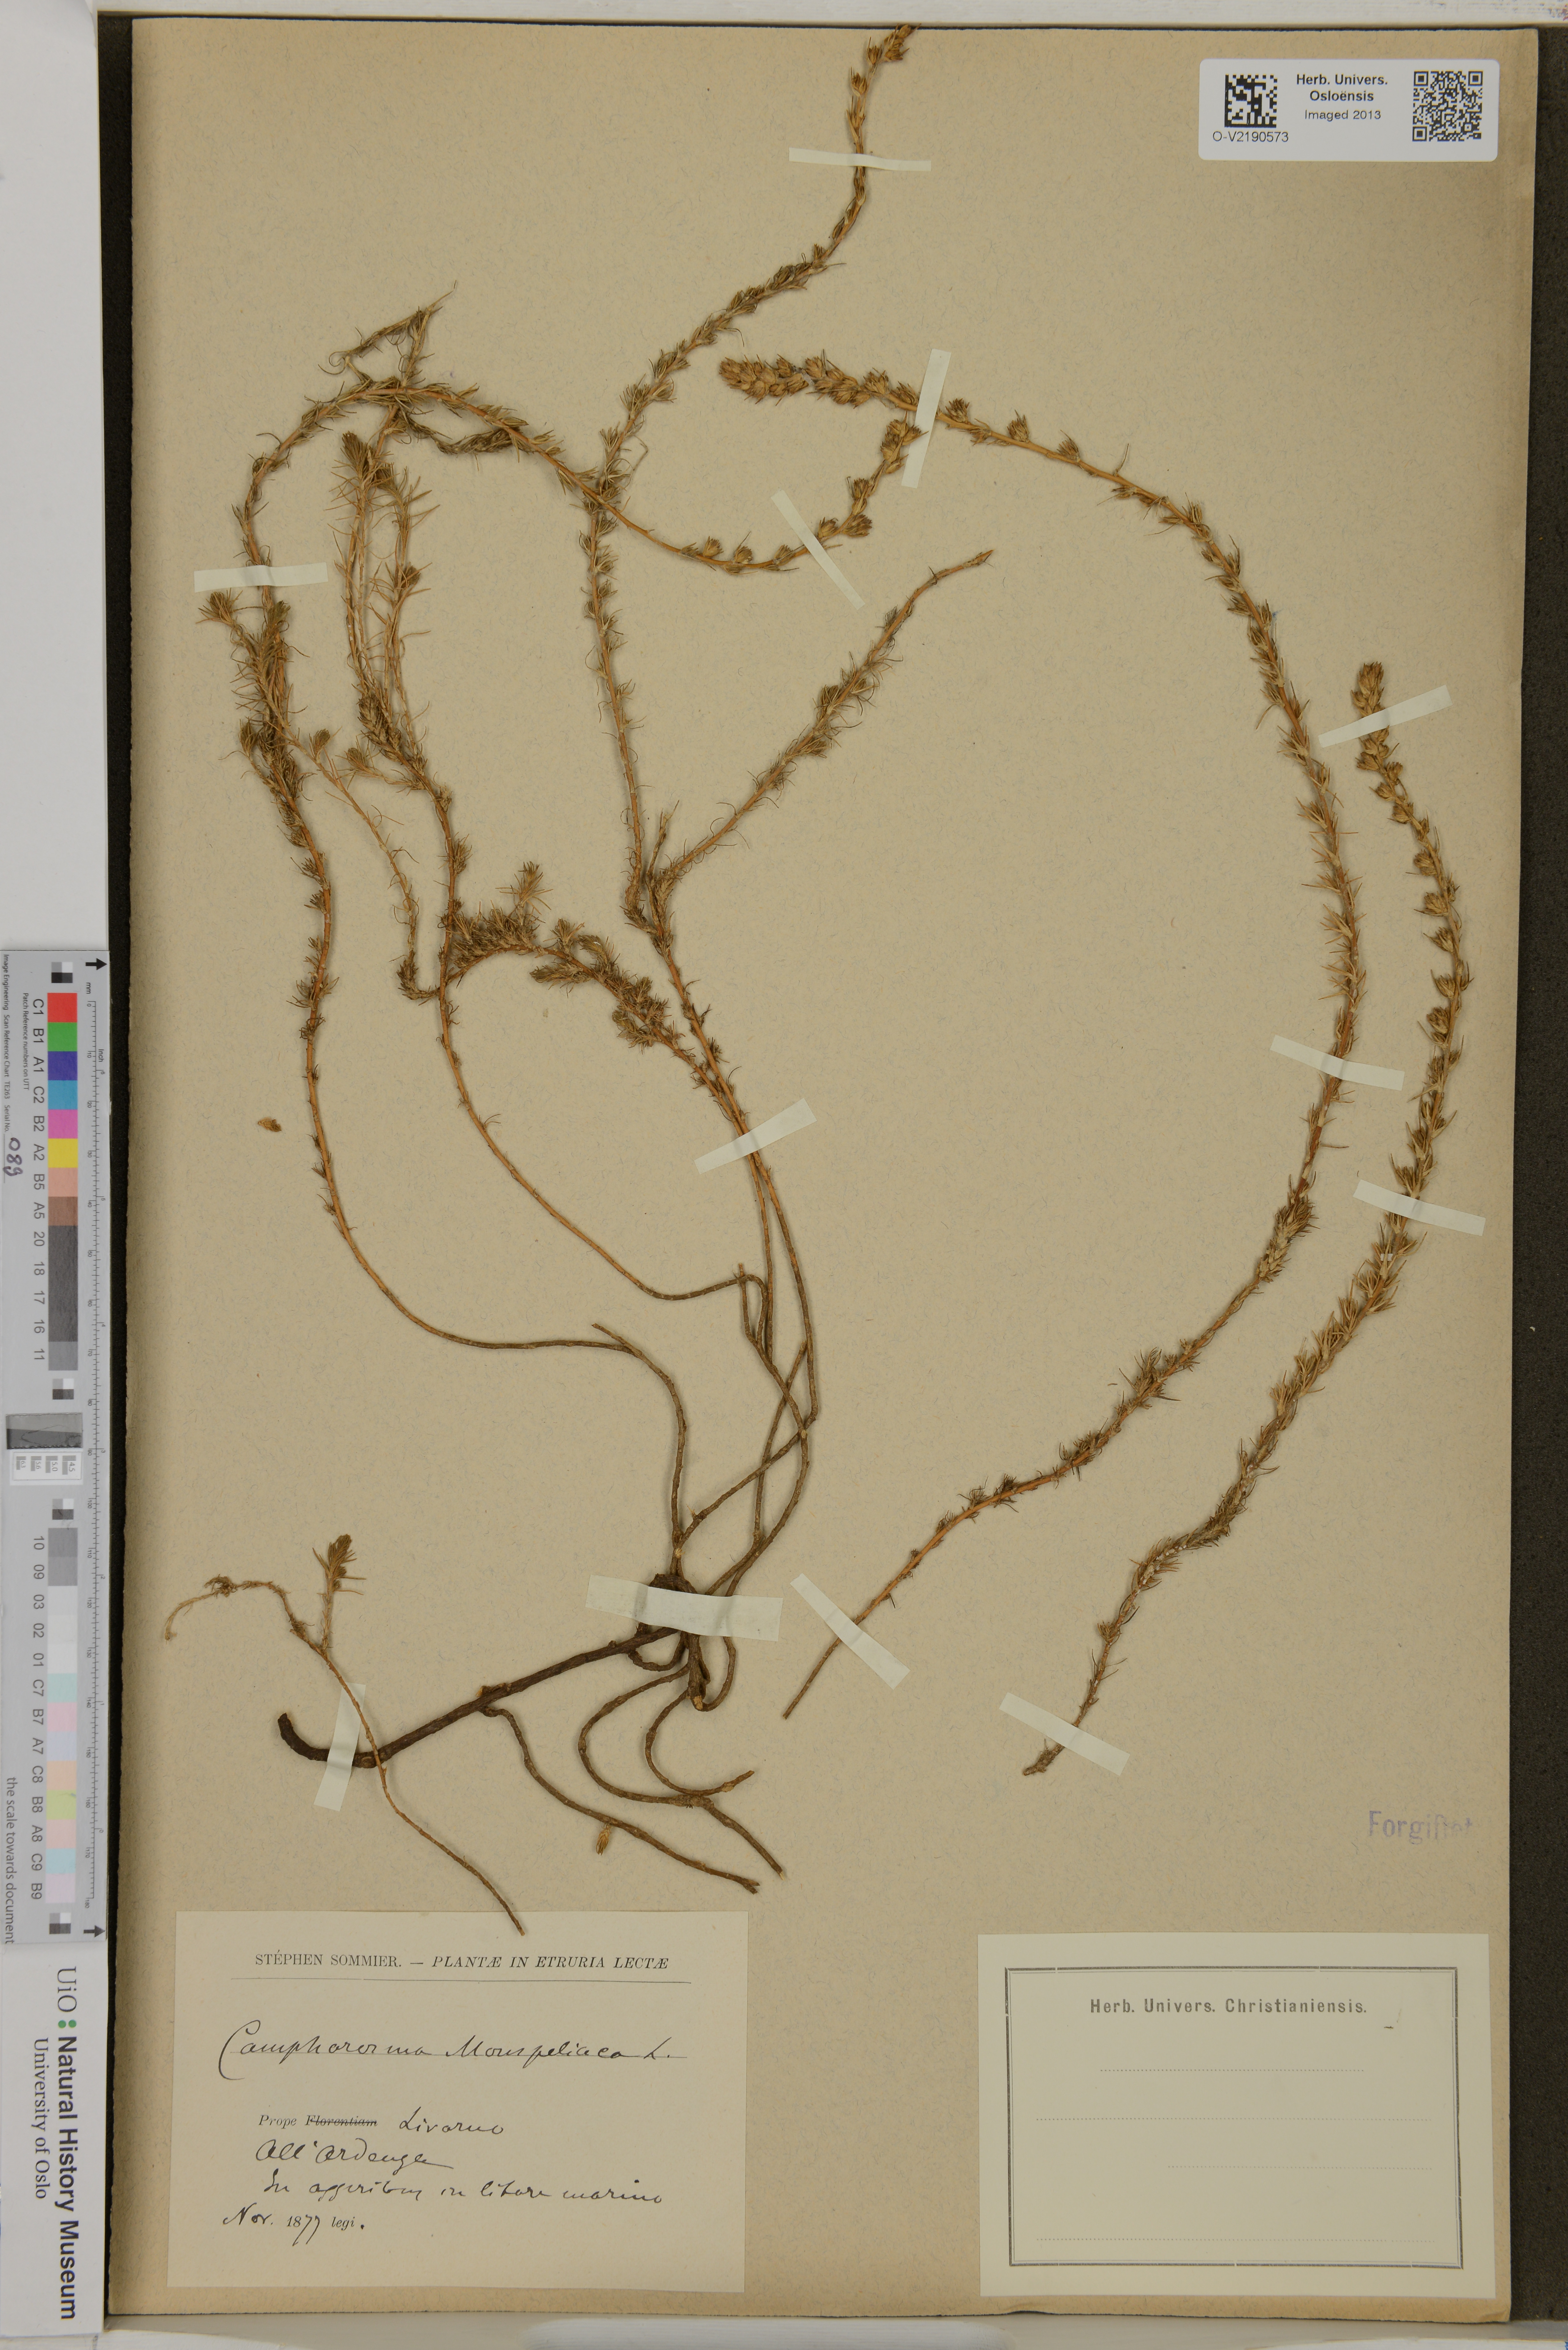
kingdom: Plantae
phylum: Tracheophyta
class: Magnoliopsida
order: Caryophyllales
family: Amaranthaceae
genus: Camphorosma
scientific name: Camphorosma monspeliaca
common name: Camphorfume
